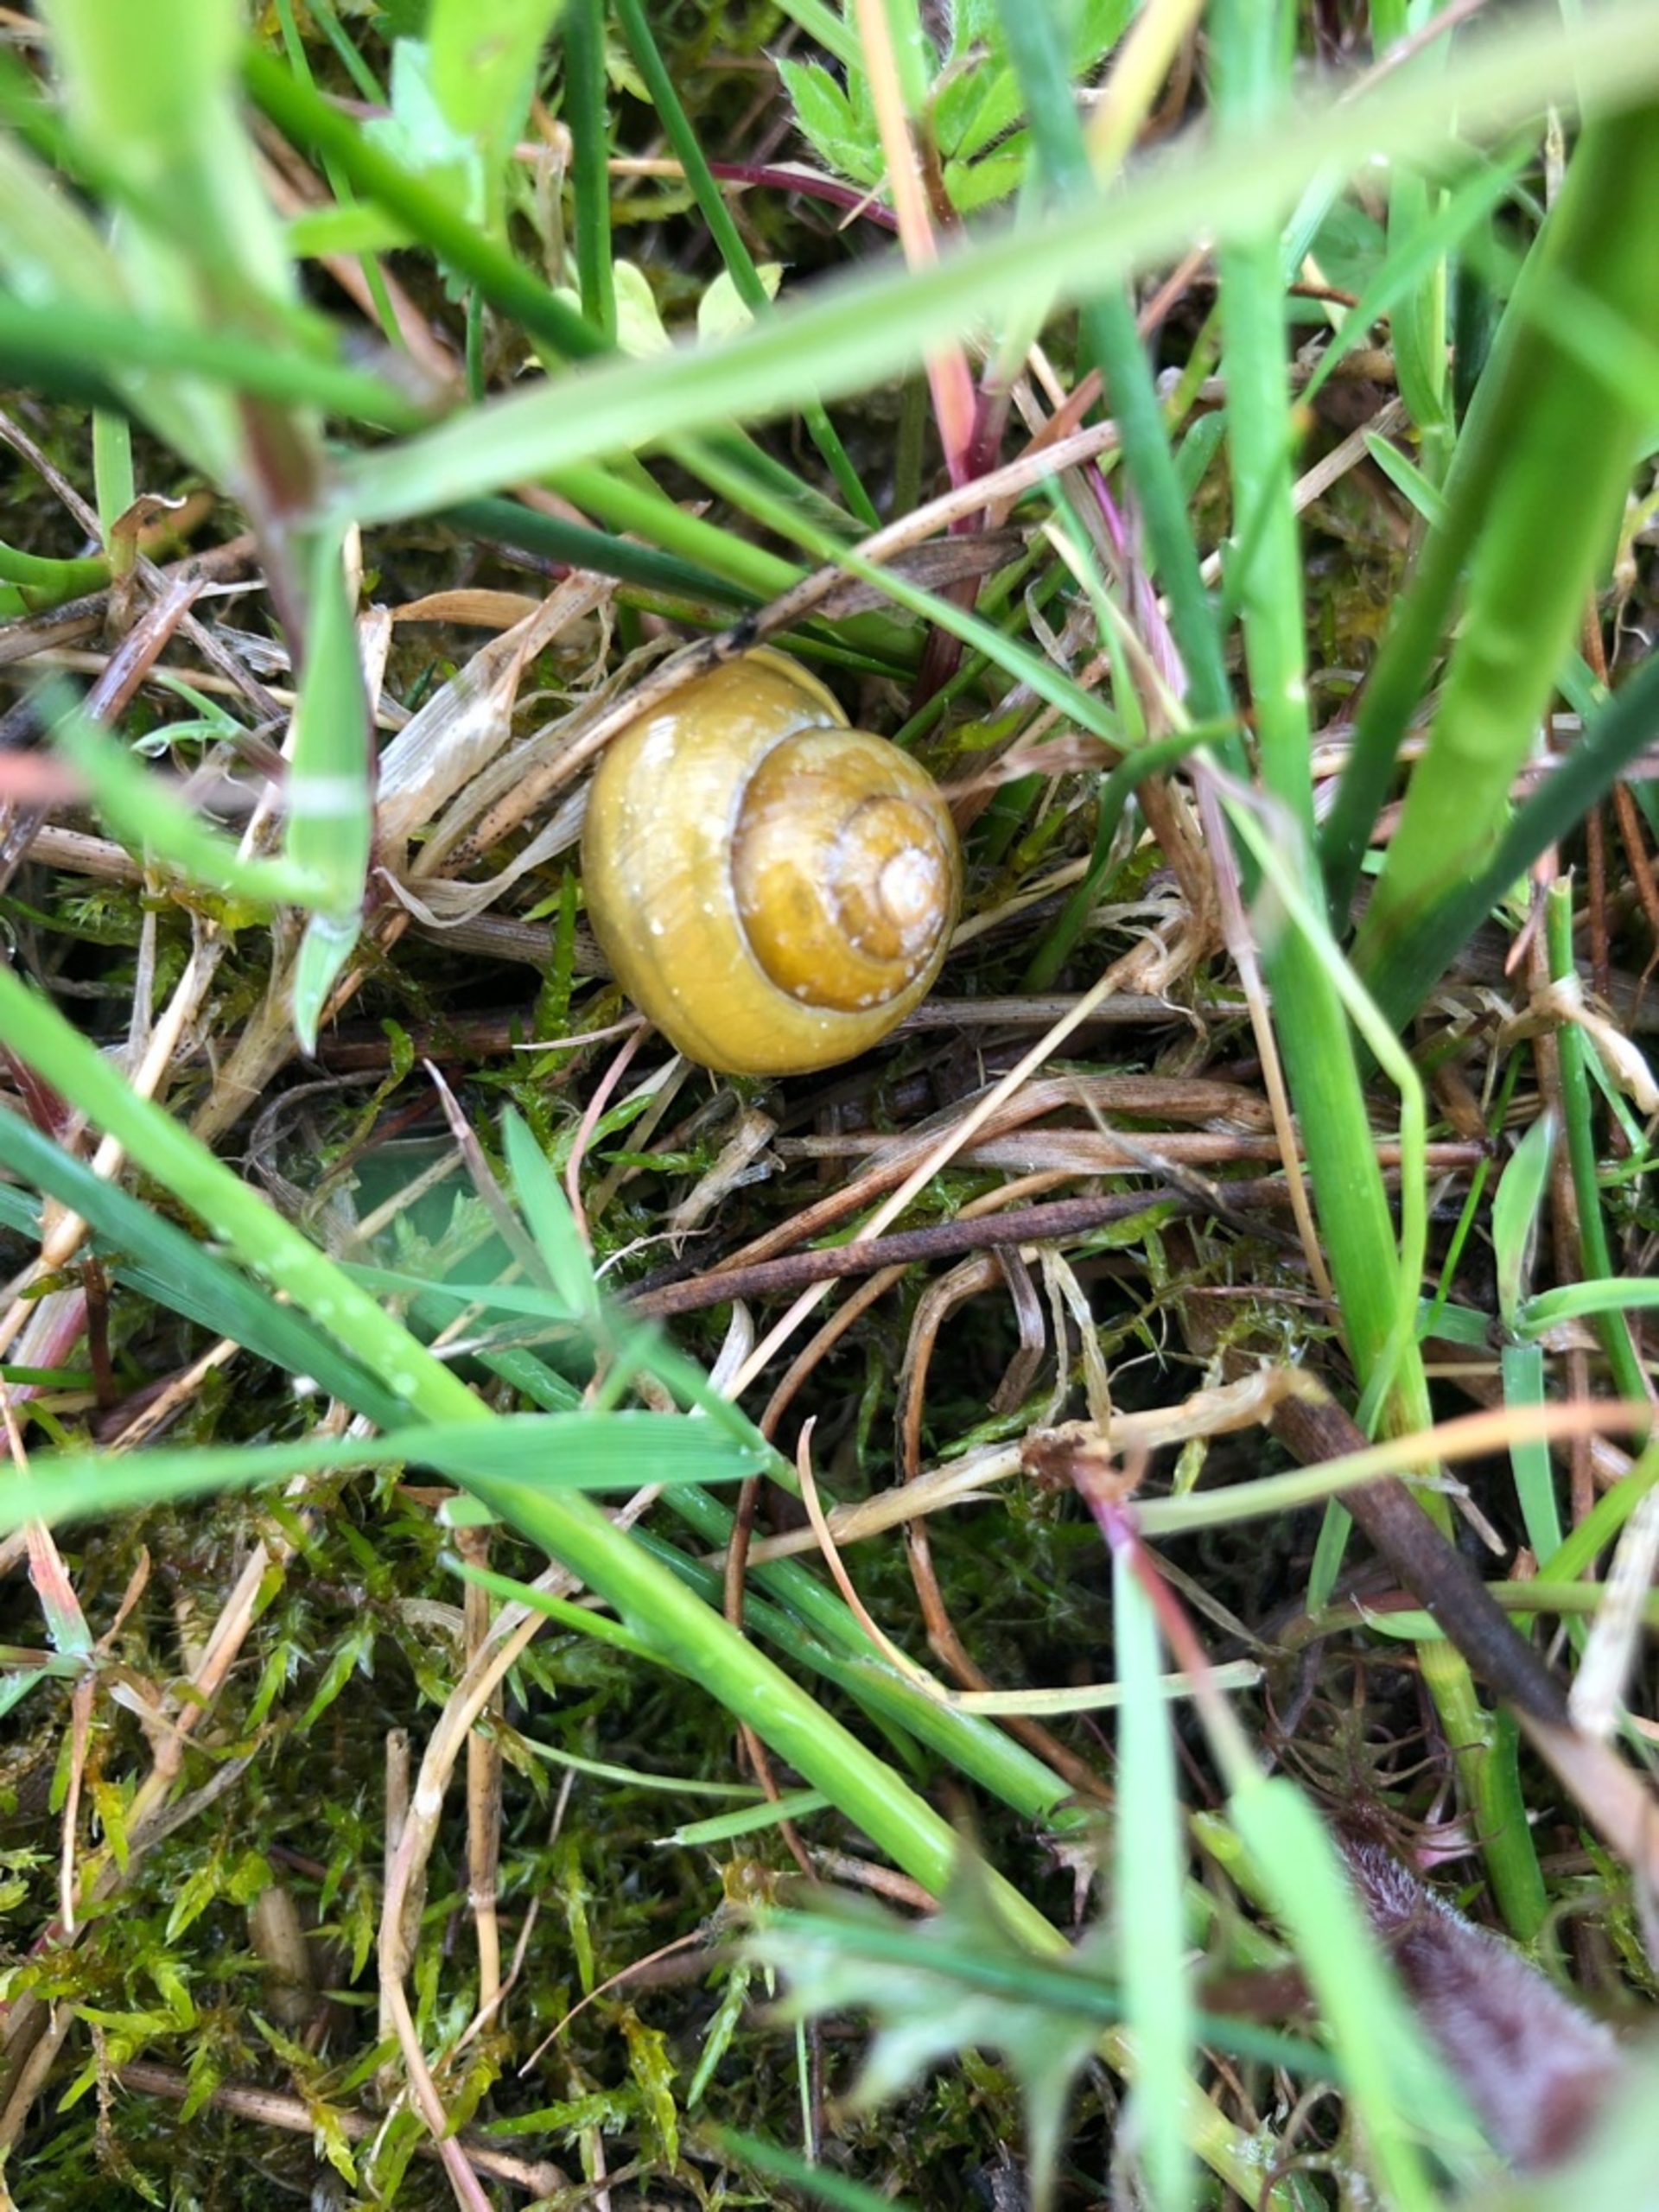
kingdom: Animalia
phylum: Mollusca
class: Gastropoda
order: Stylommatophora
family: Helicidae
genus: Cepaea
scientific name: Cepaea hortensis
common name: Havesnegl
